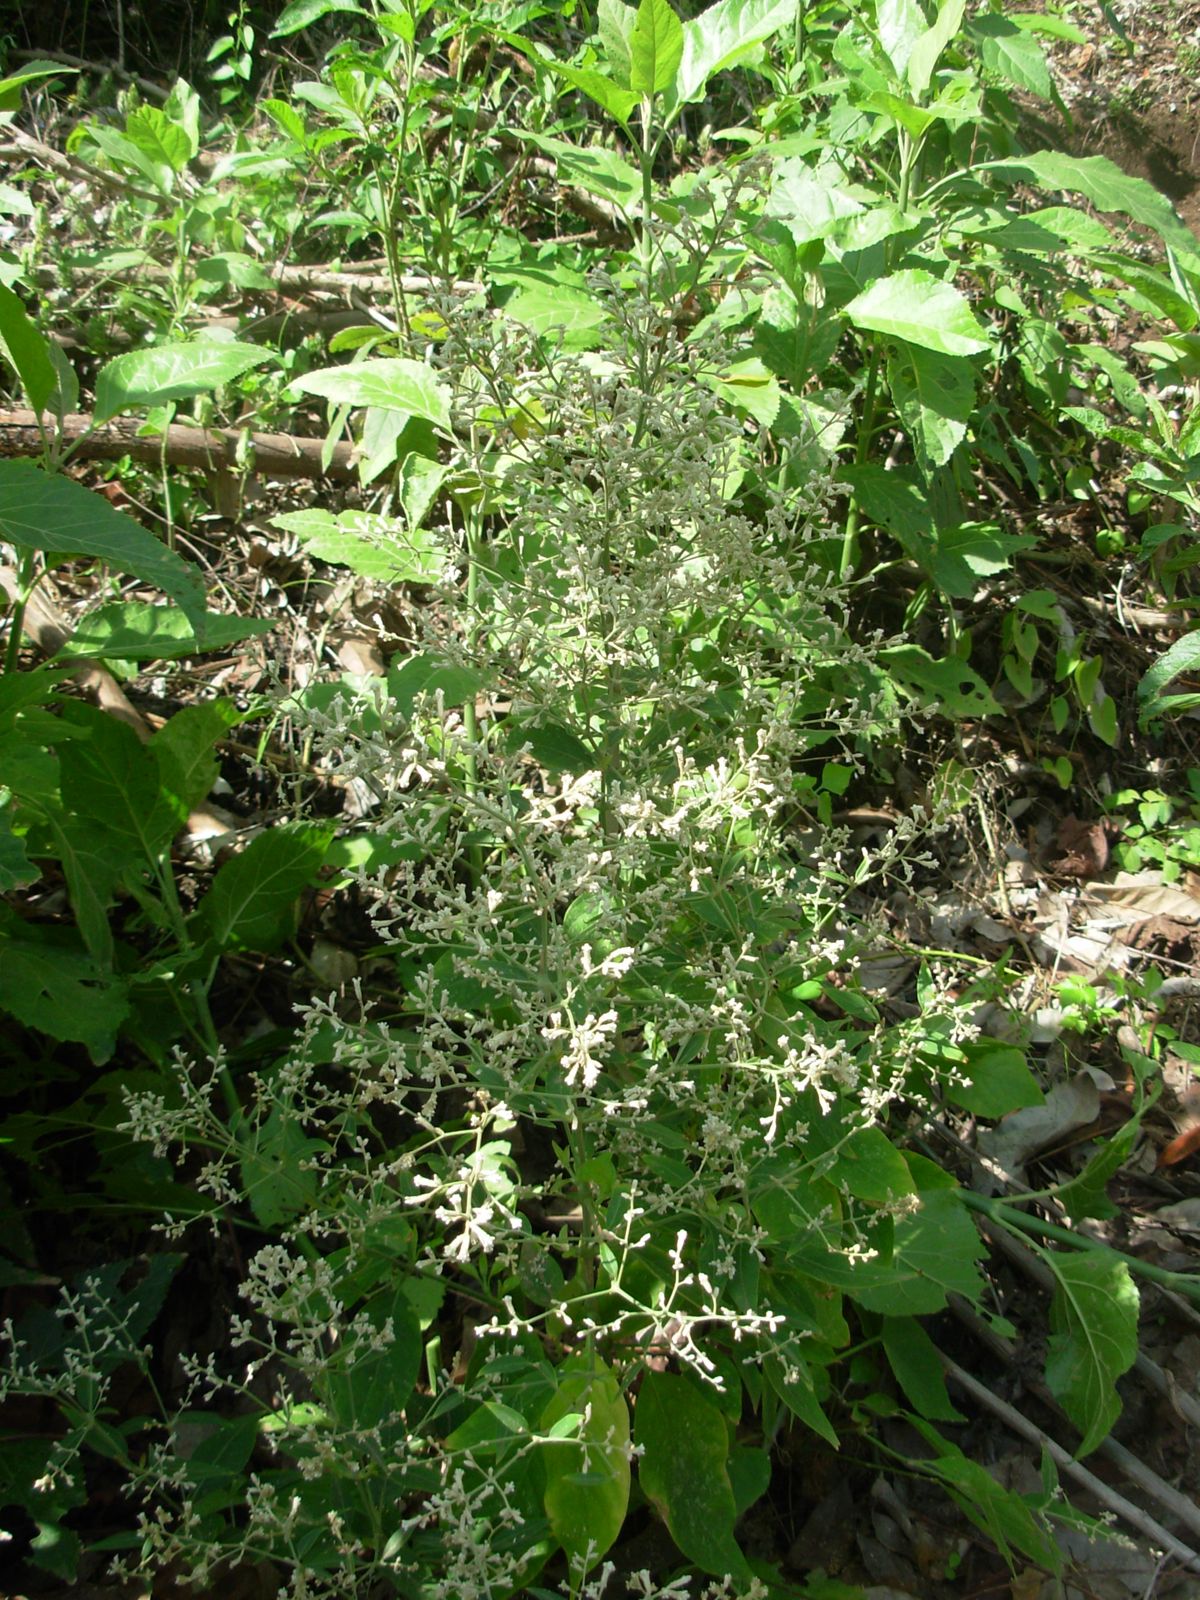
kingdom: Plantae
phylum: Tracheophyta
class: Magnoliopsida
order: Caryophyllales
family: Amaranthaceae
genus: Iresine
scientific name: Iresine latifolia
